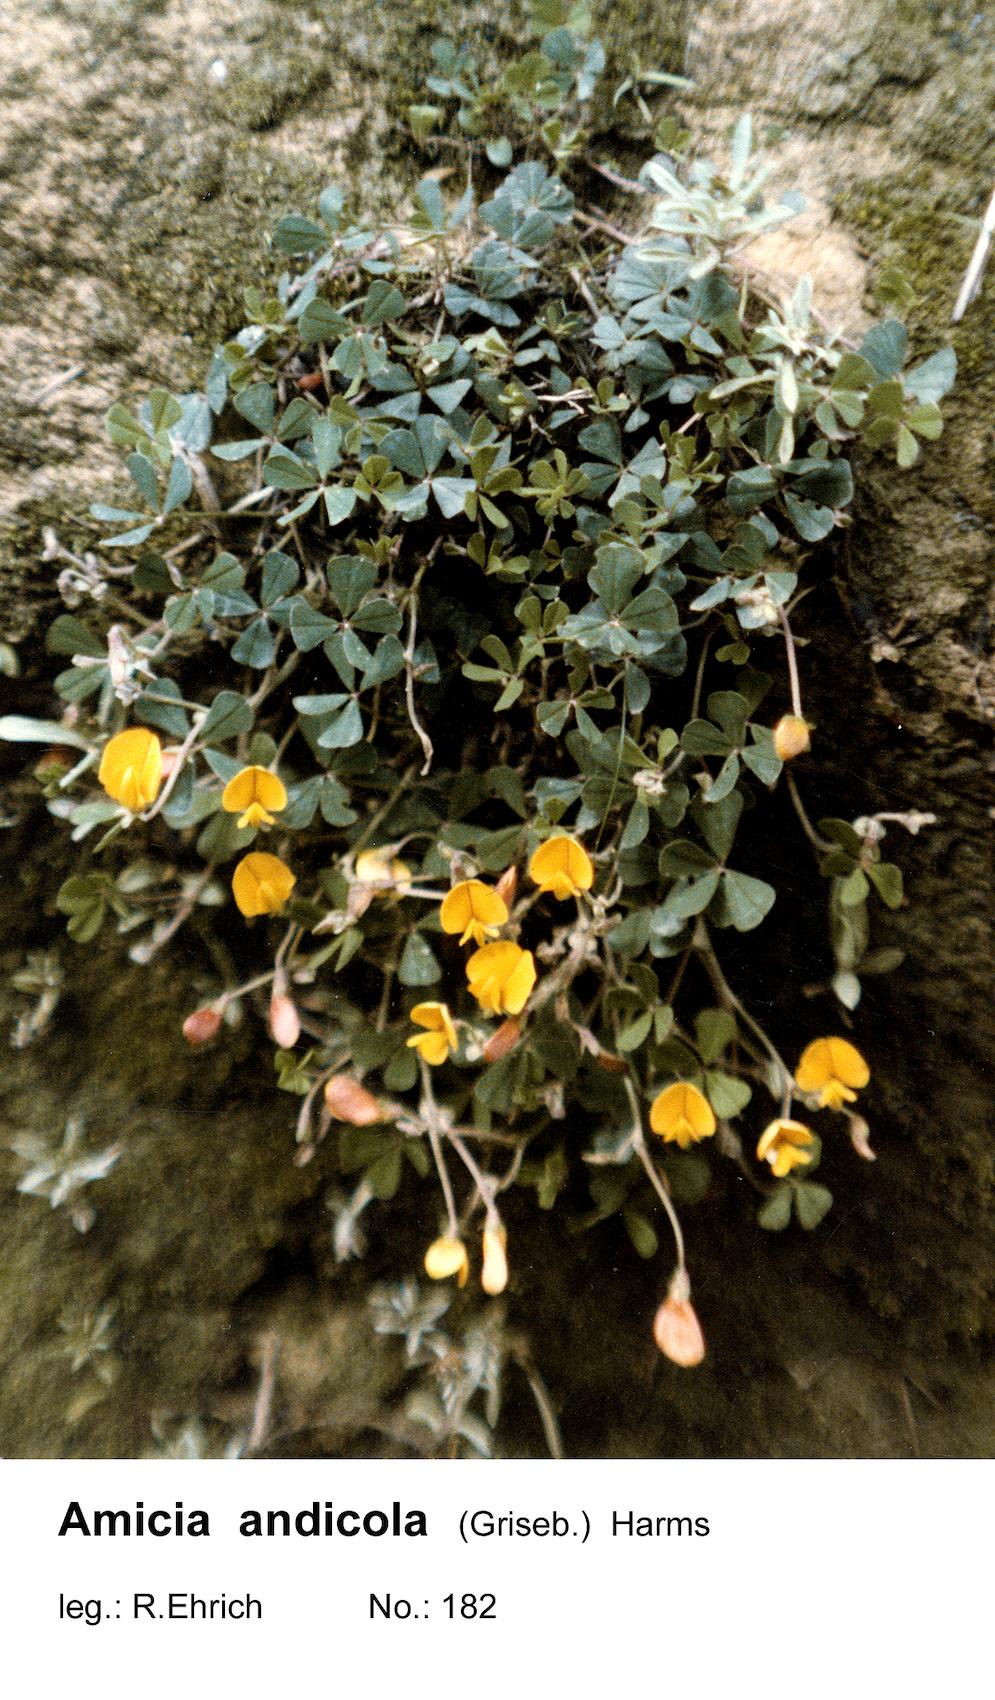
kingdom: Plantae
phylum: Tracheophyta
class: Magnoliopsida
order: Fabales
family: Fabaceae
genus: Amicia
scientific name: Amicia andicola
